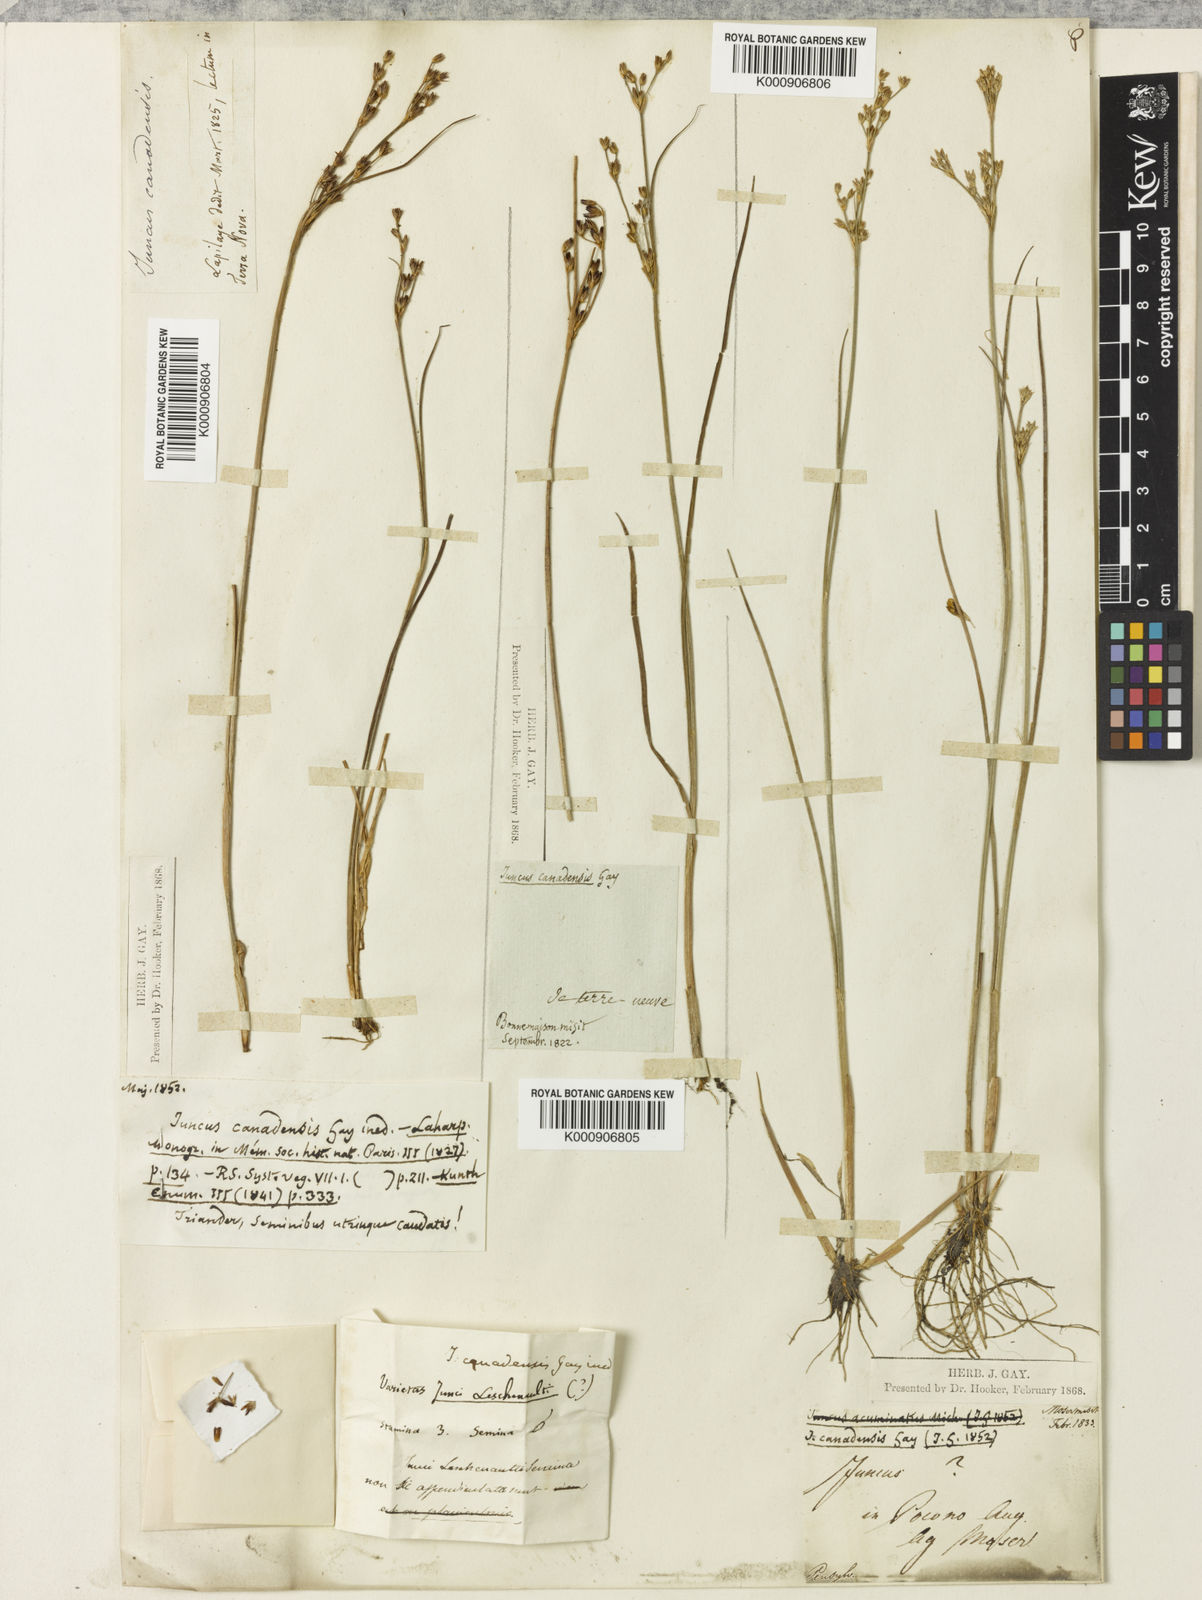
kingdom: Plantae
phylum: Tracheophyta
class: Liliopsida
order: Poales
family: Juncaceae
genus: Juncus
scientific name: Juncus
